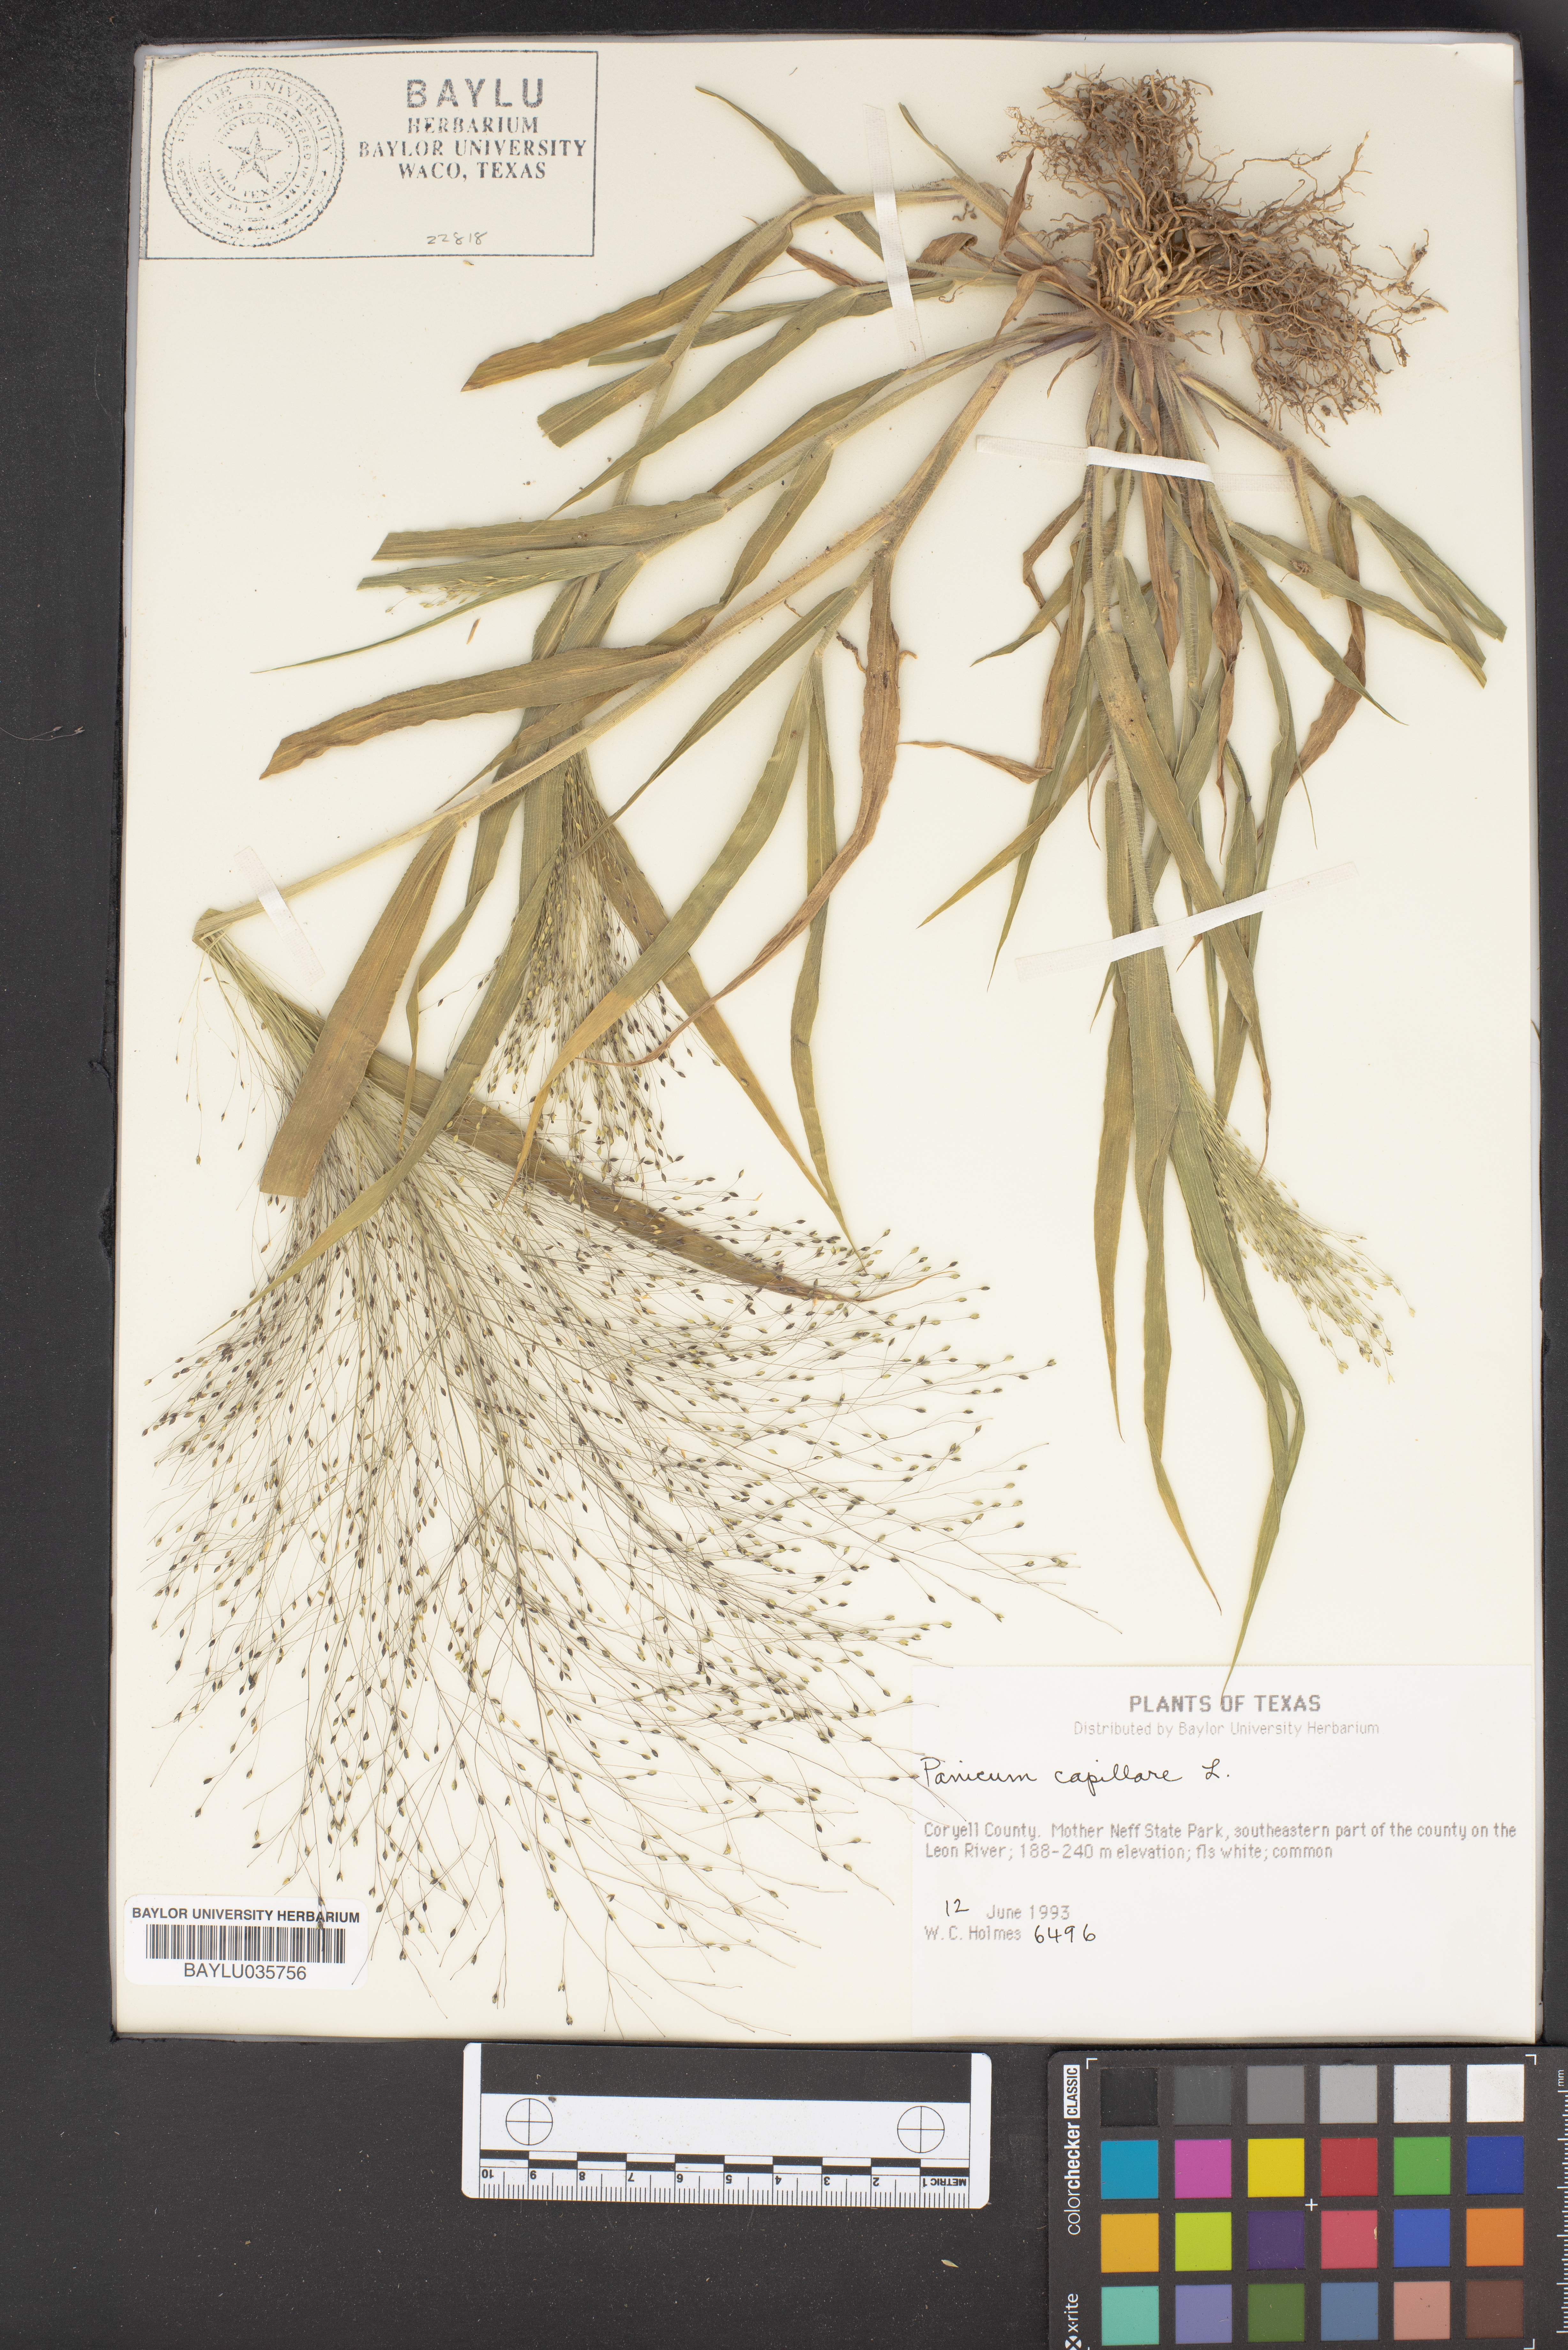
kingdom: Plantae
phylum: Tracheophyta
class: Liliopsida
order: Poales
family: Poaceae
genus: Panicum
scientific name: Panicum capillare
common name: Witch-grass
